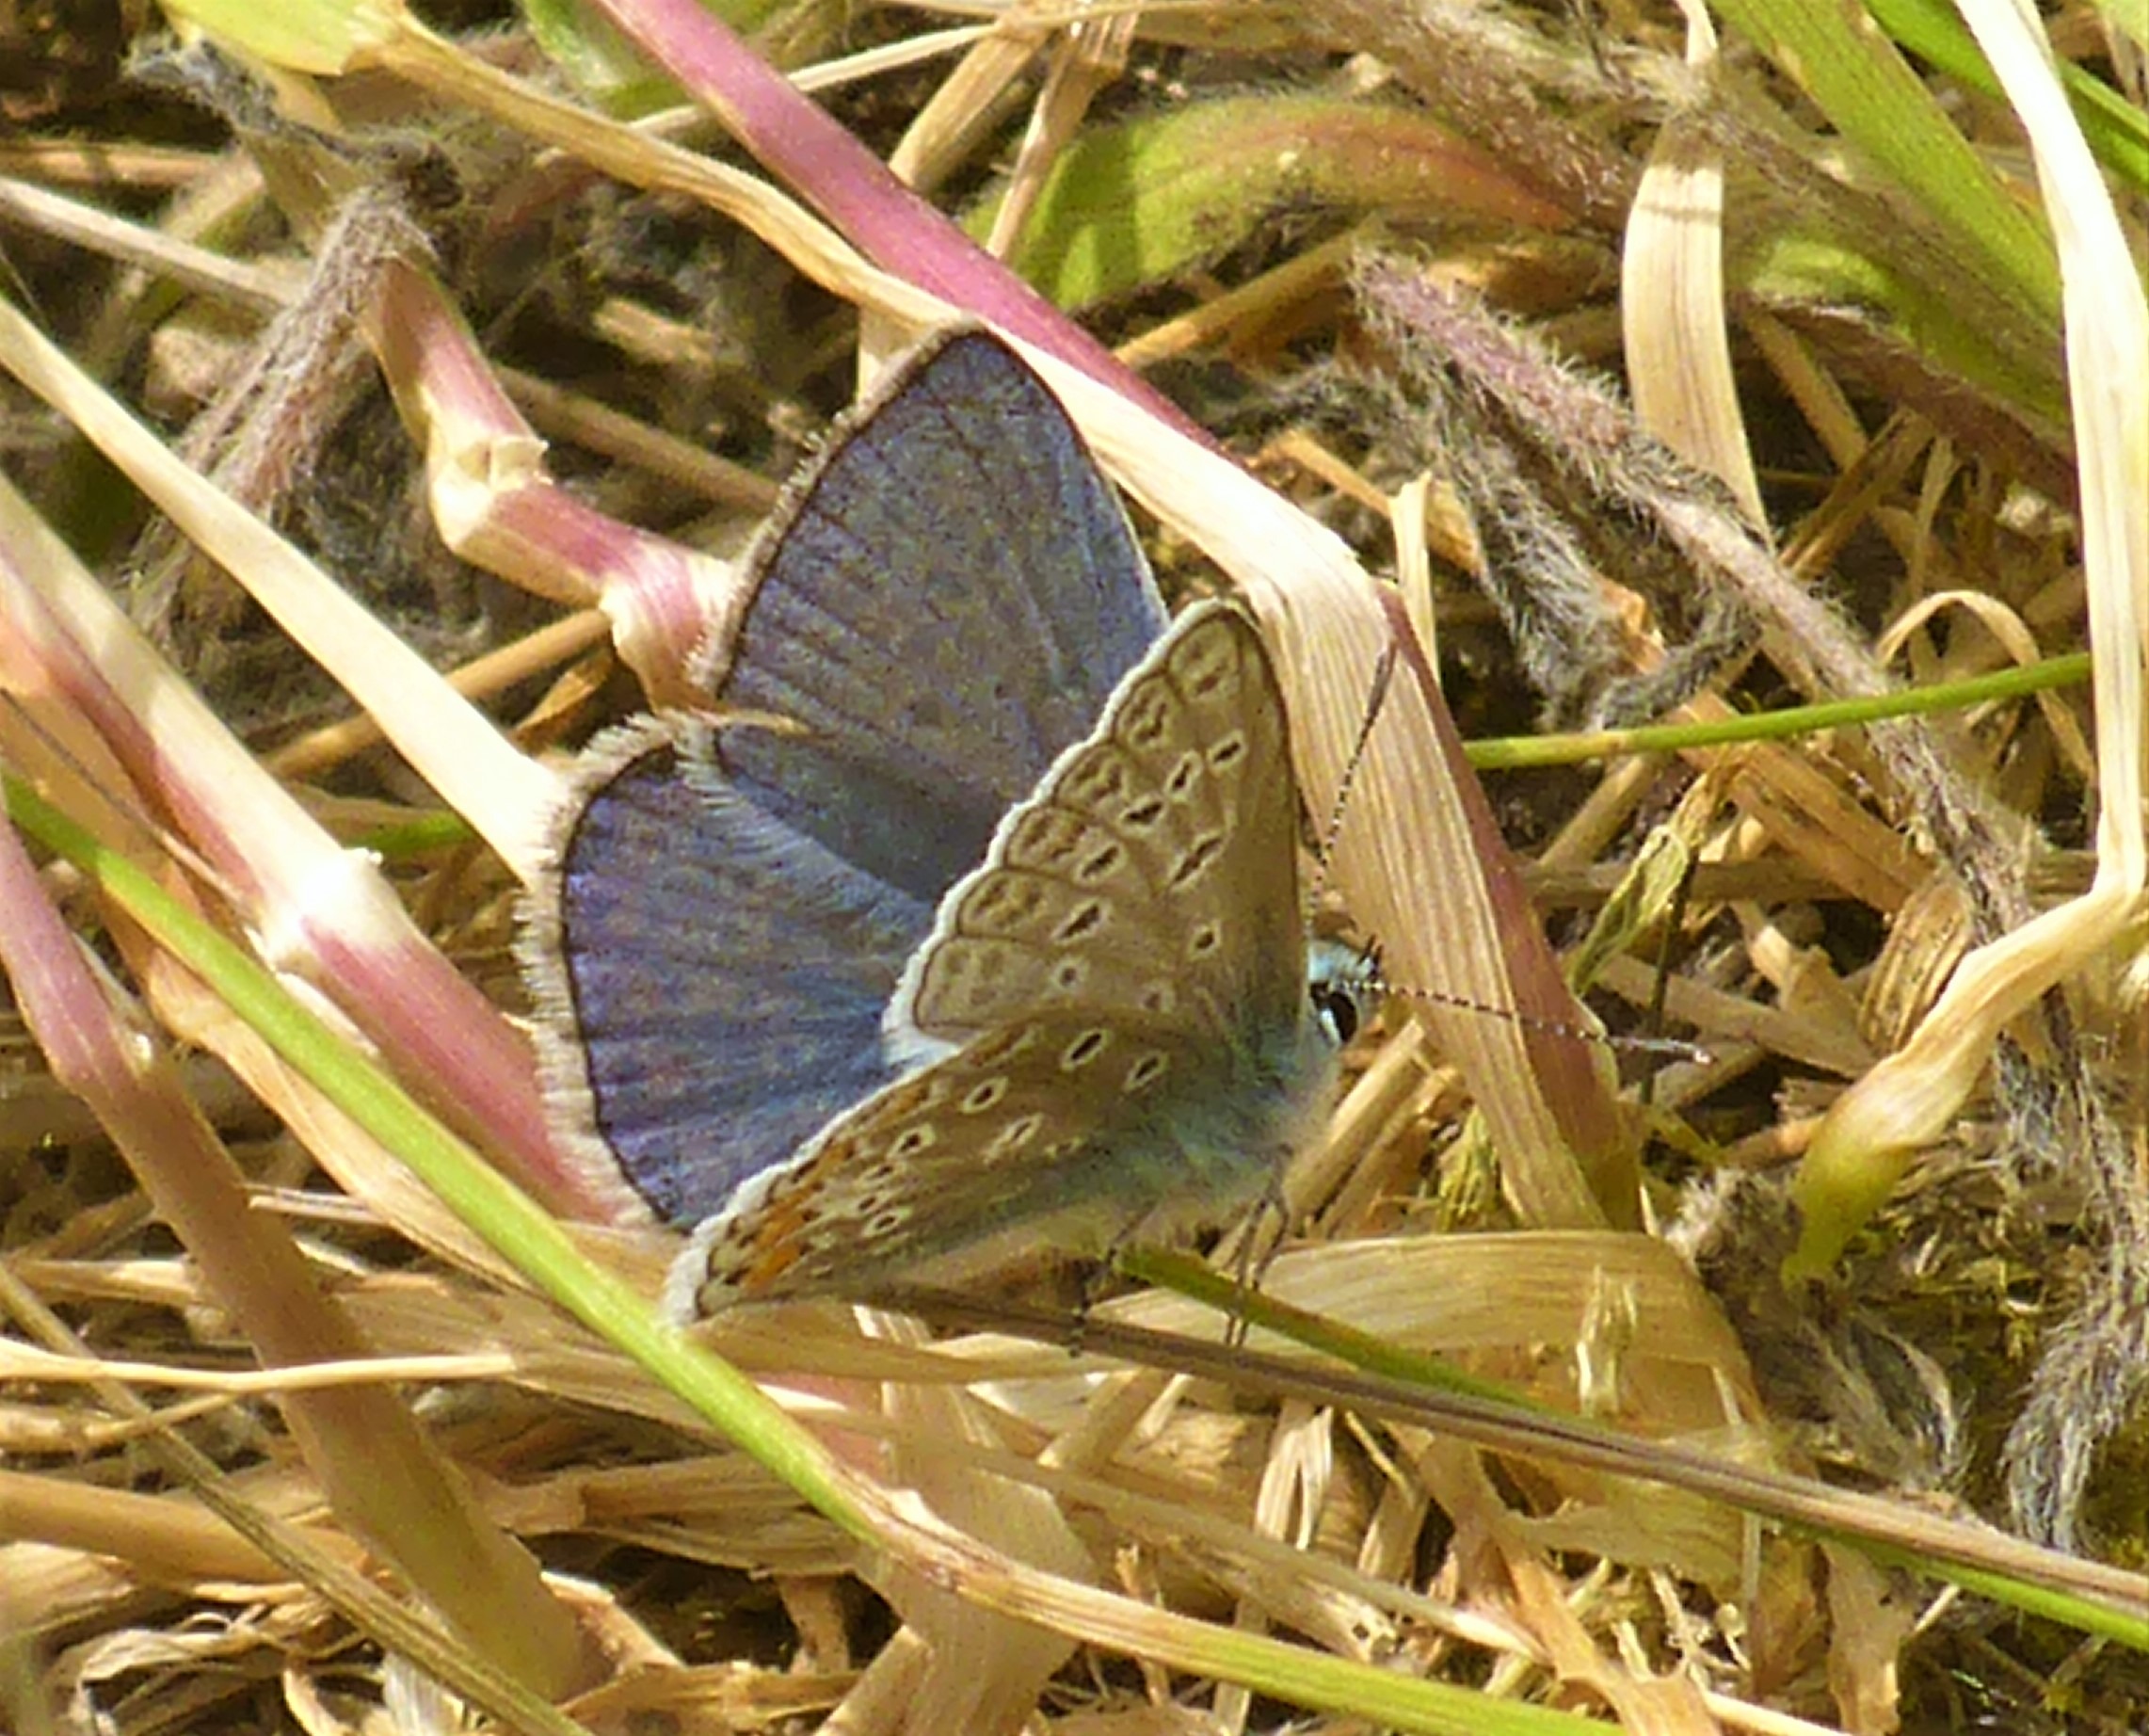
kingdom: Animalia
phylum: Arthropoda
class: Insecta
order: Lepidoptera
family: Lycaenidae
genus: Polyommatus
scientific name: Polyommatus icarus
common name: Almindelig blåfugl
